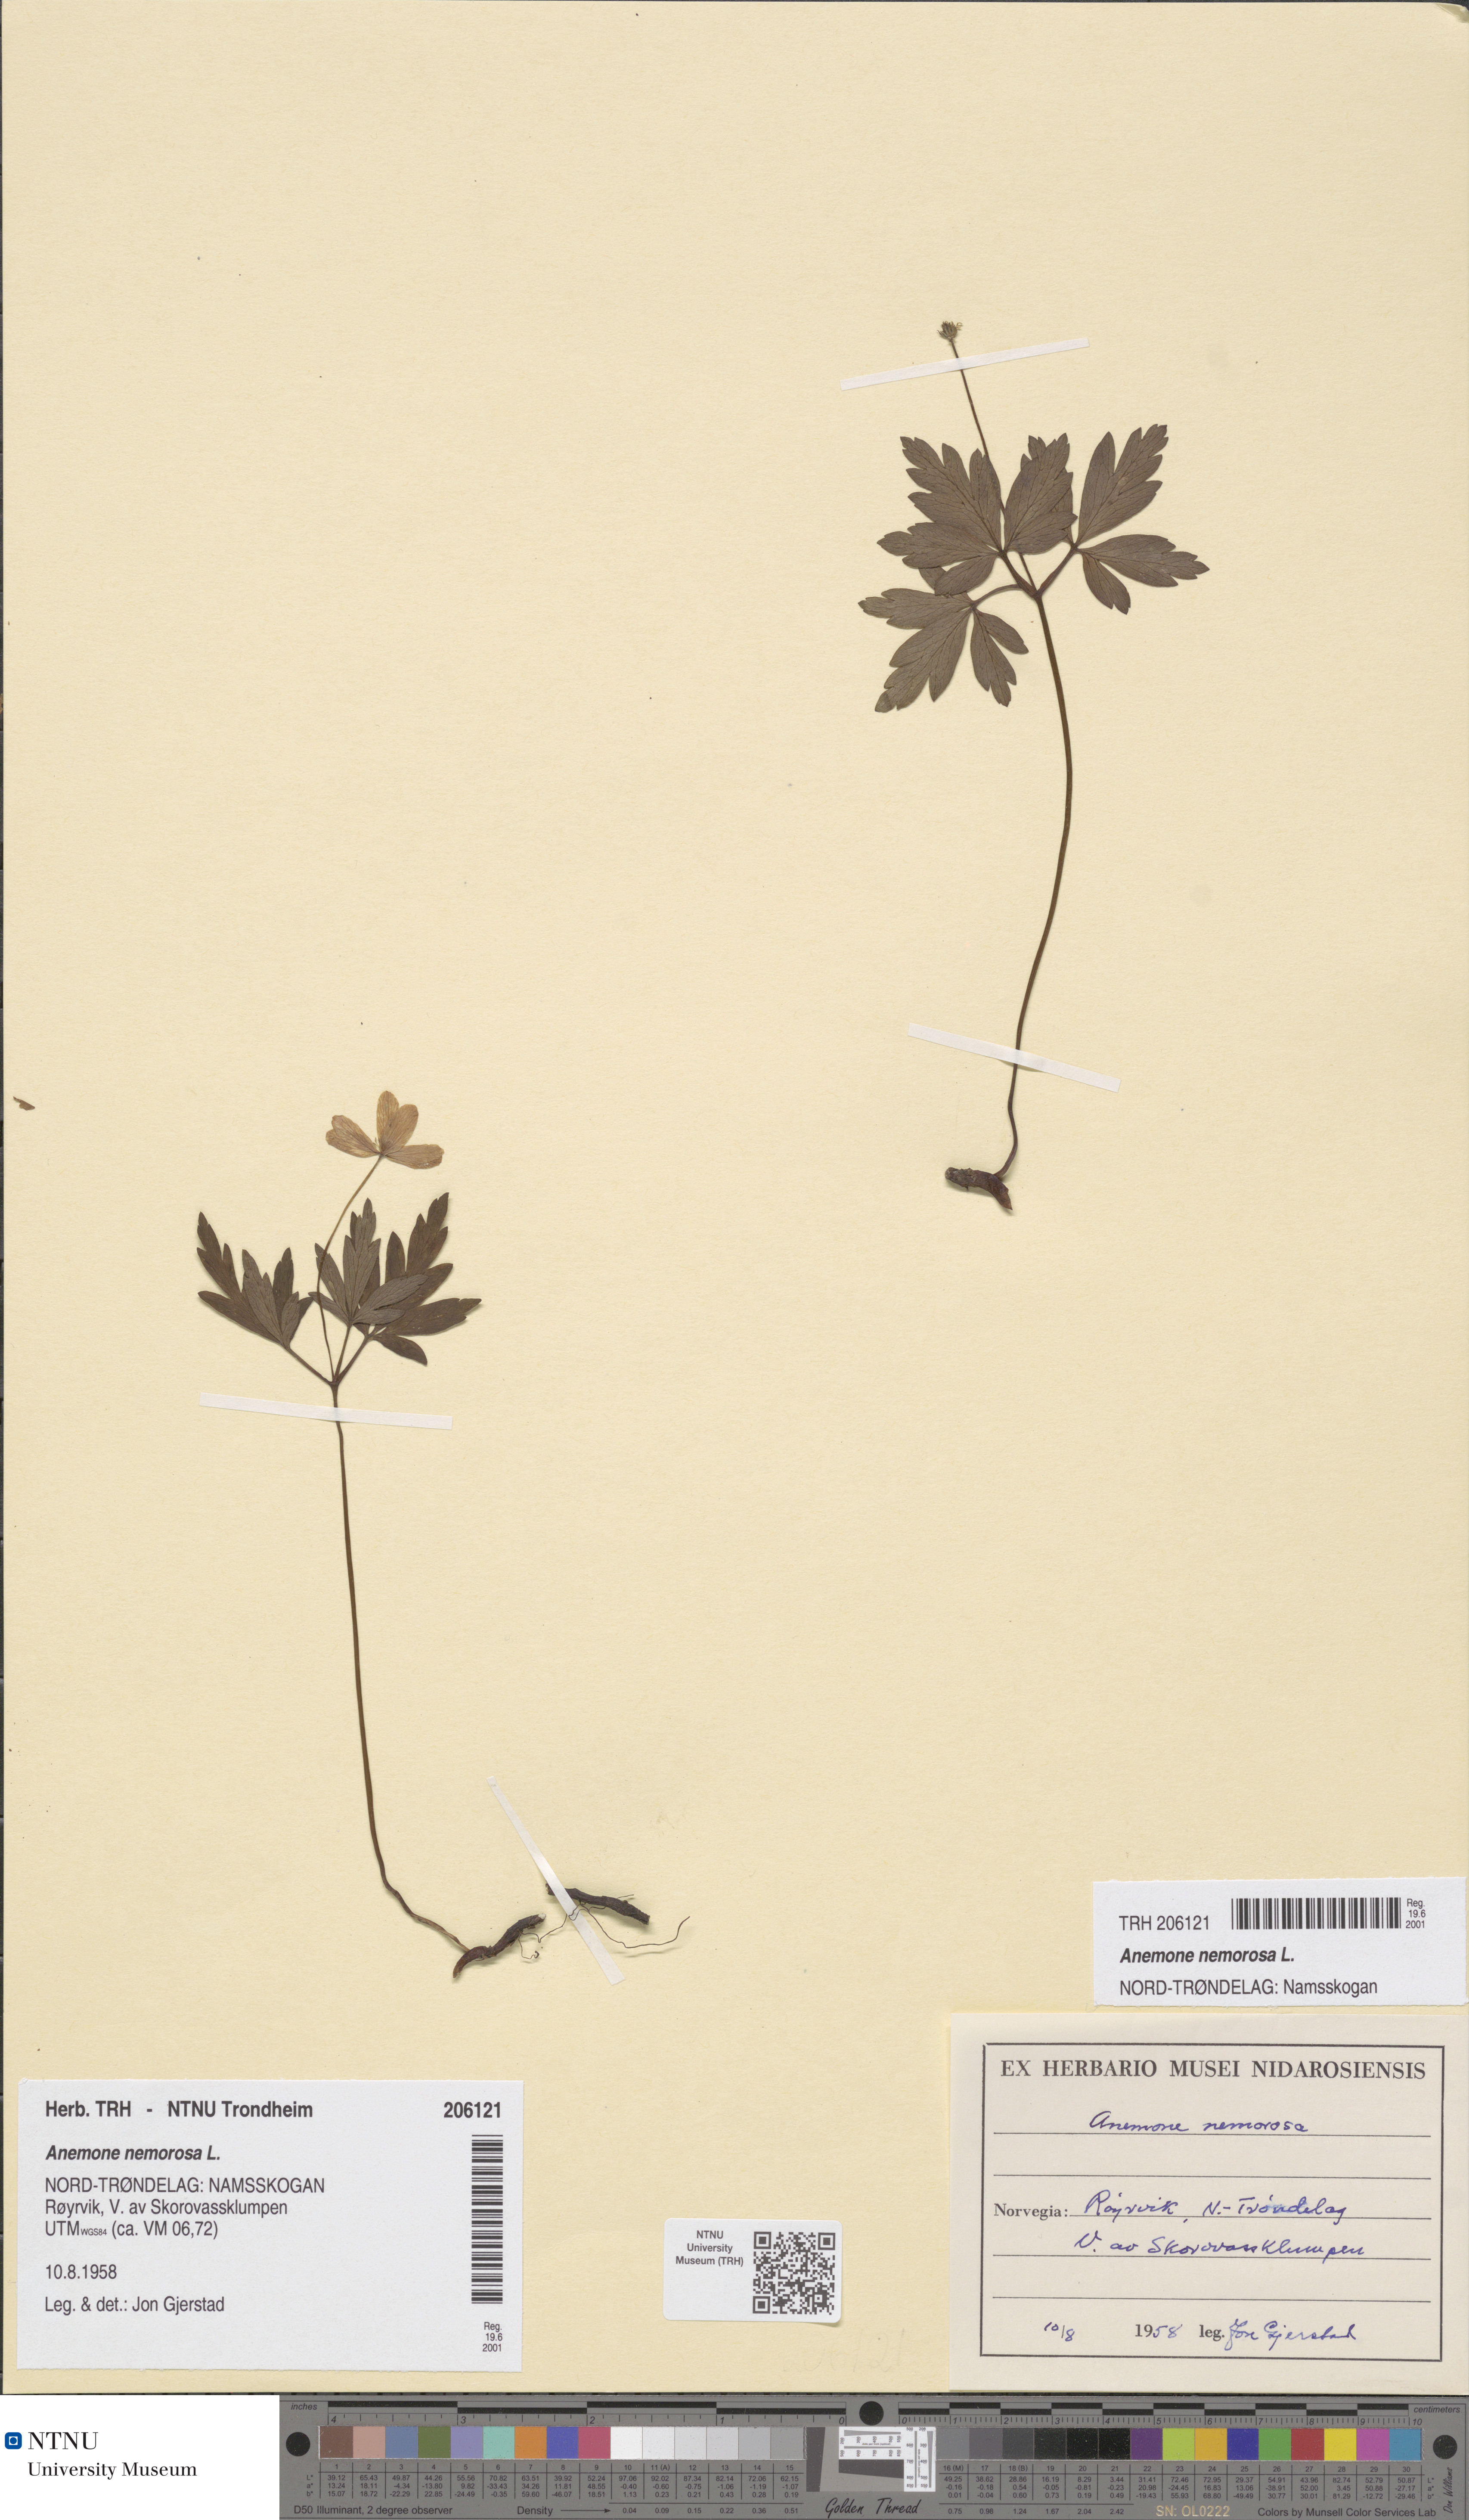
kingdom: Plantae
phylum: Tracheophyta
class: Magnoliopsida
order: Ranunculales
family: Ranunculaceae
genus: Anemone
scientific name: Anemone nemorosa
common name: Wood anemone
